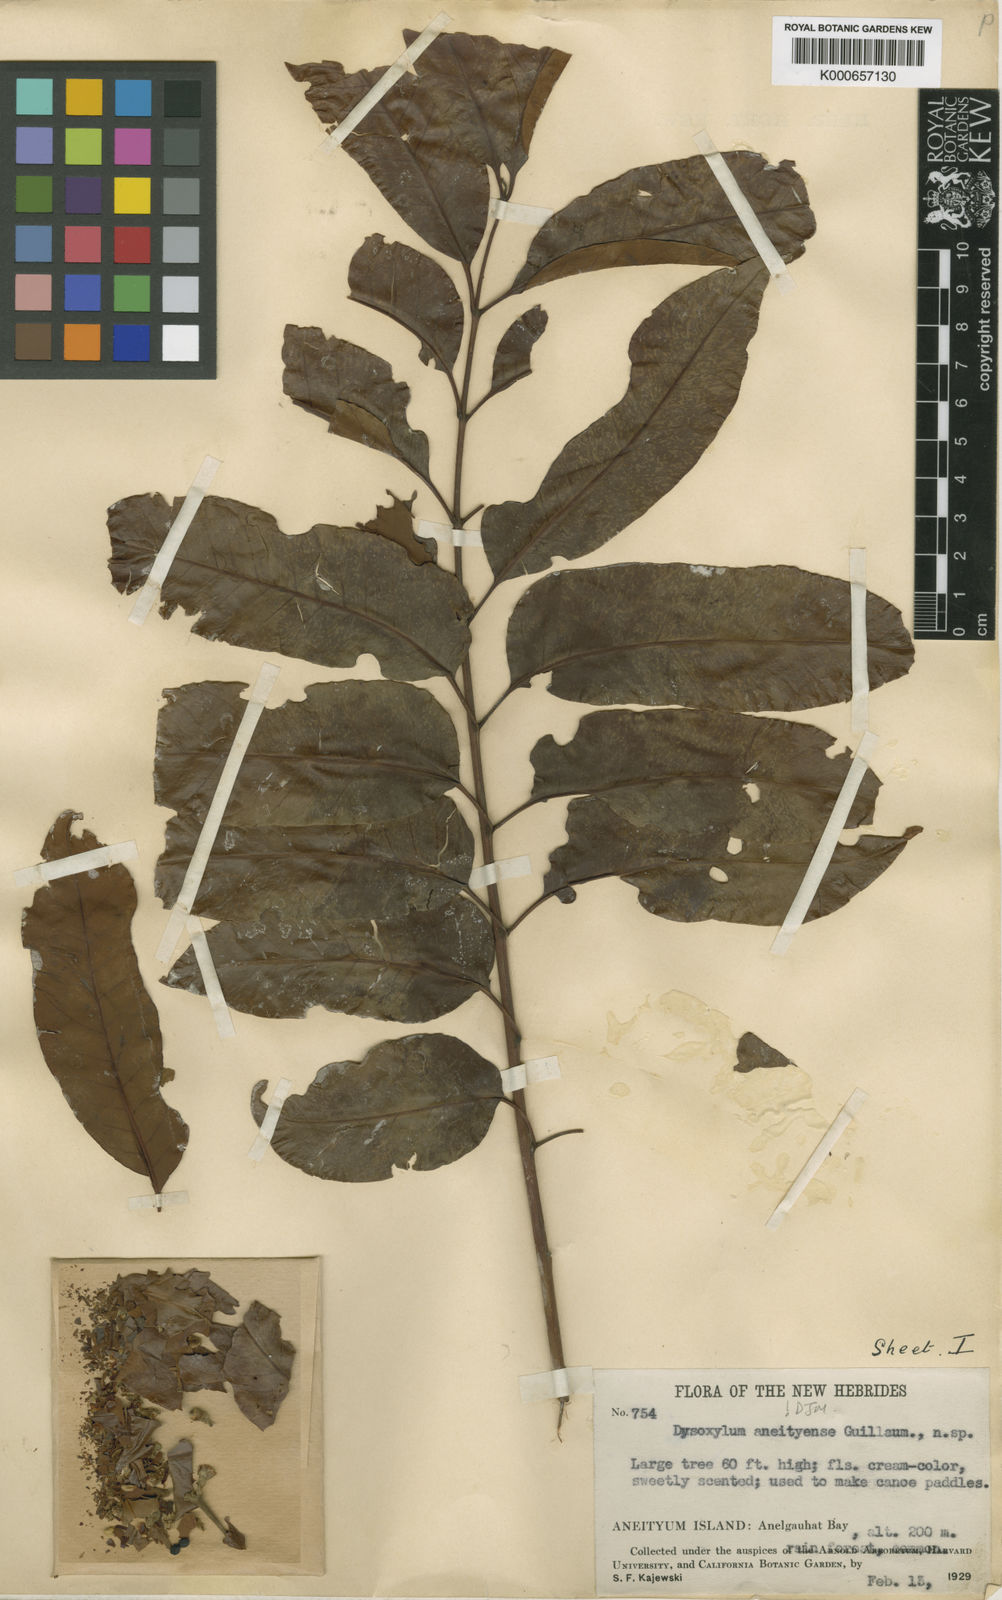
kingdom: Plantae
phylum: Tracheophyta
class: Magnoliopsida
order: Sapindales
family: Meliaceae
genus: Didymocheton
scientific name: Didymocheton aneityensis
